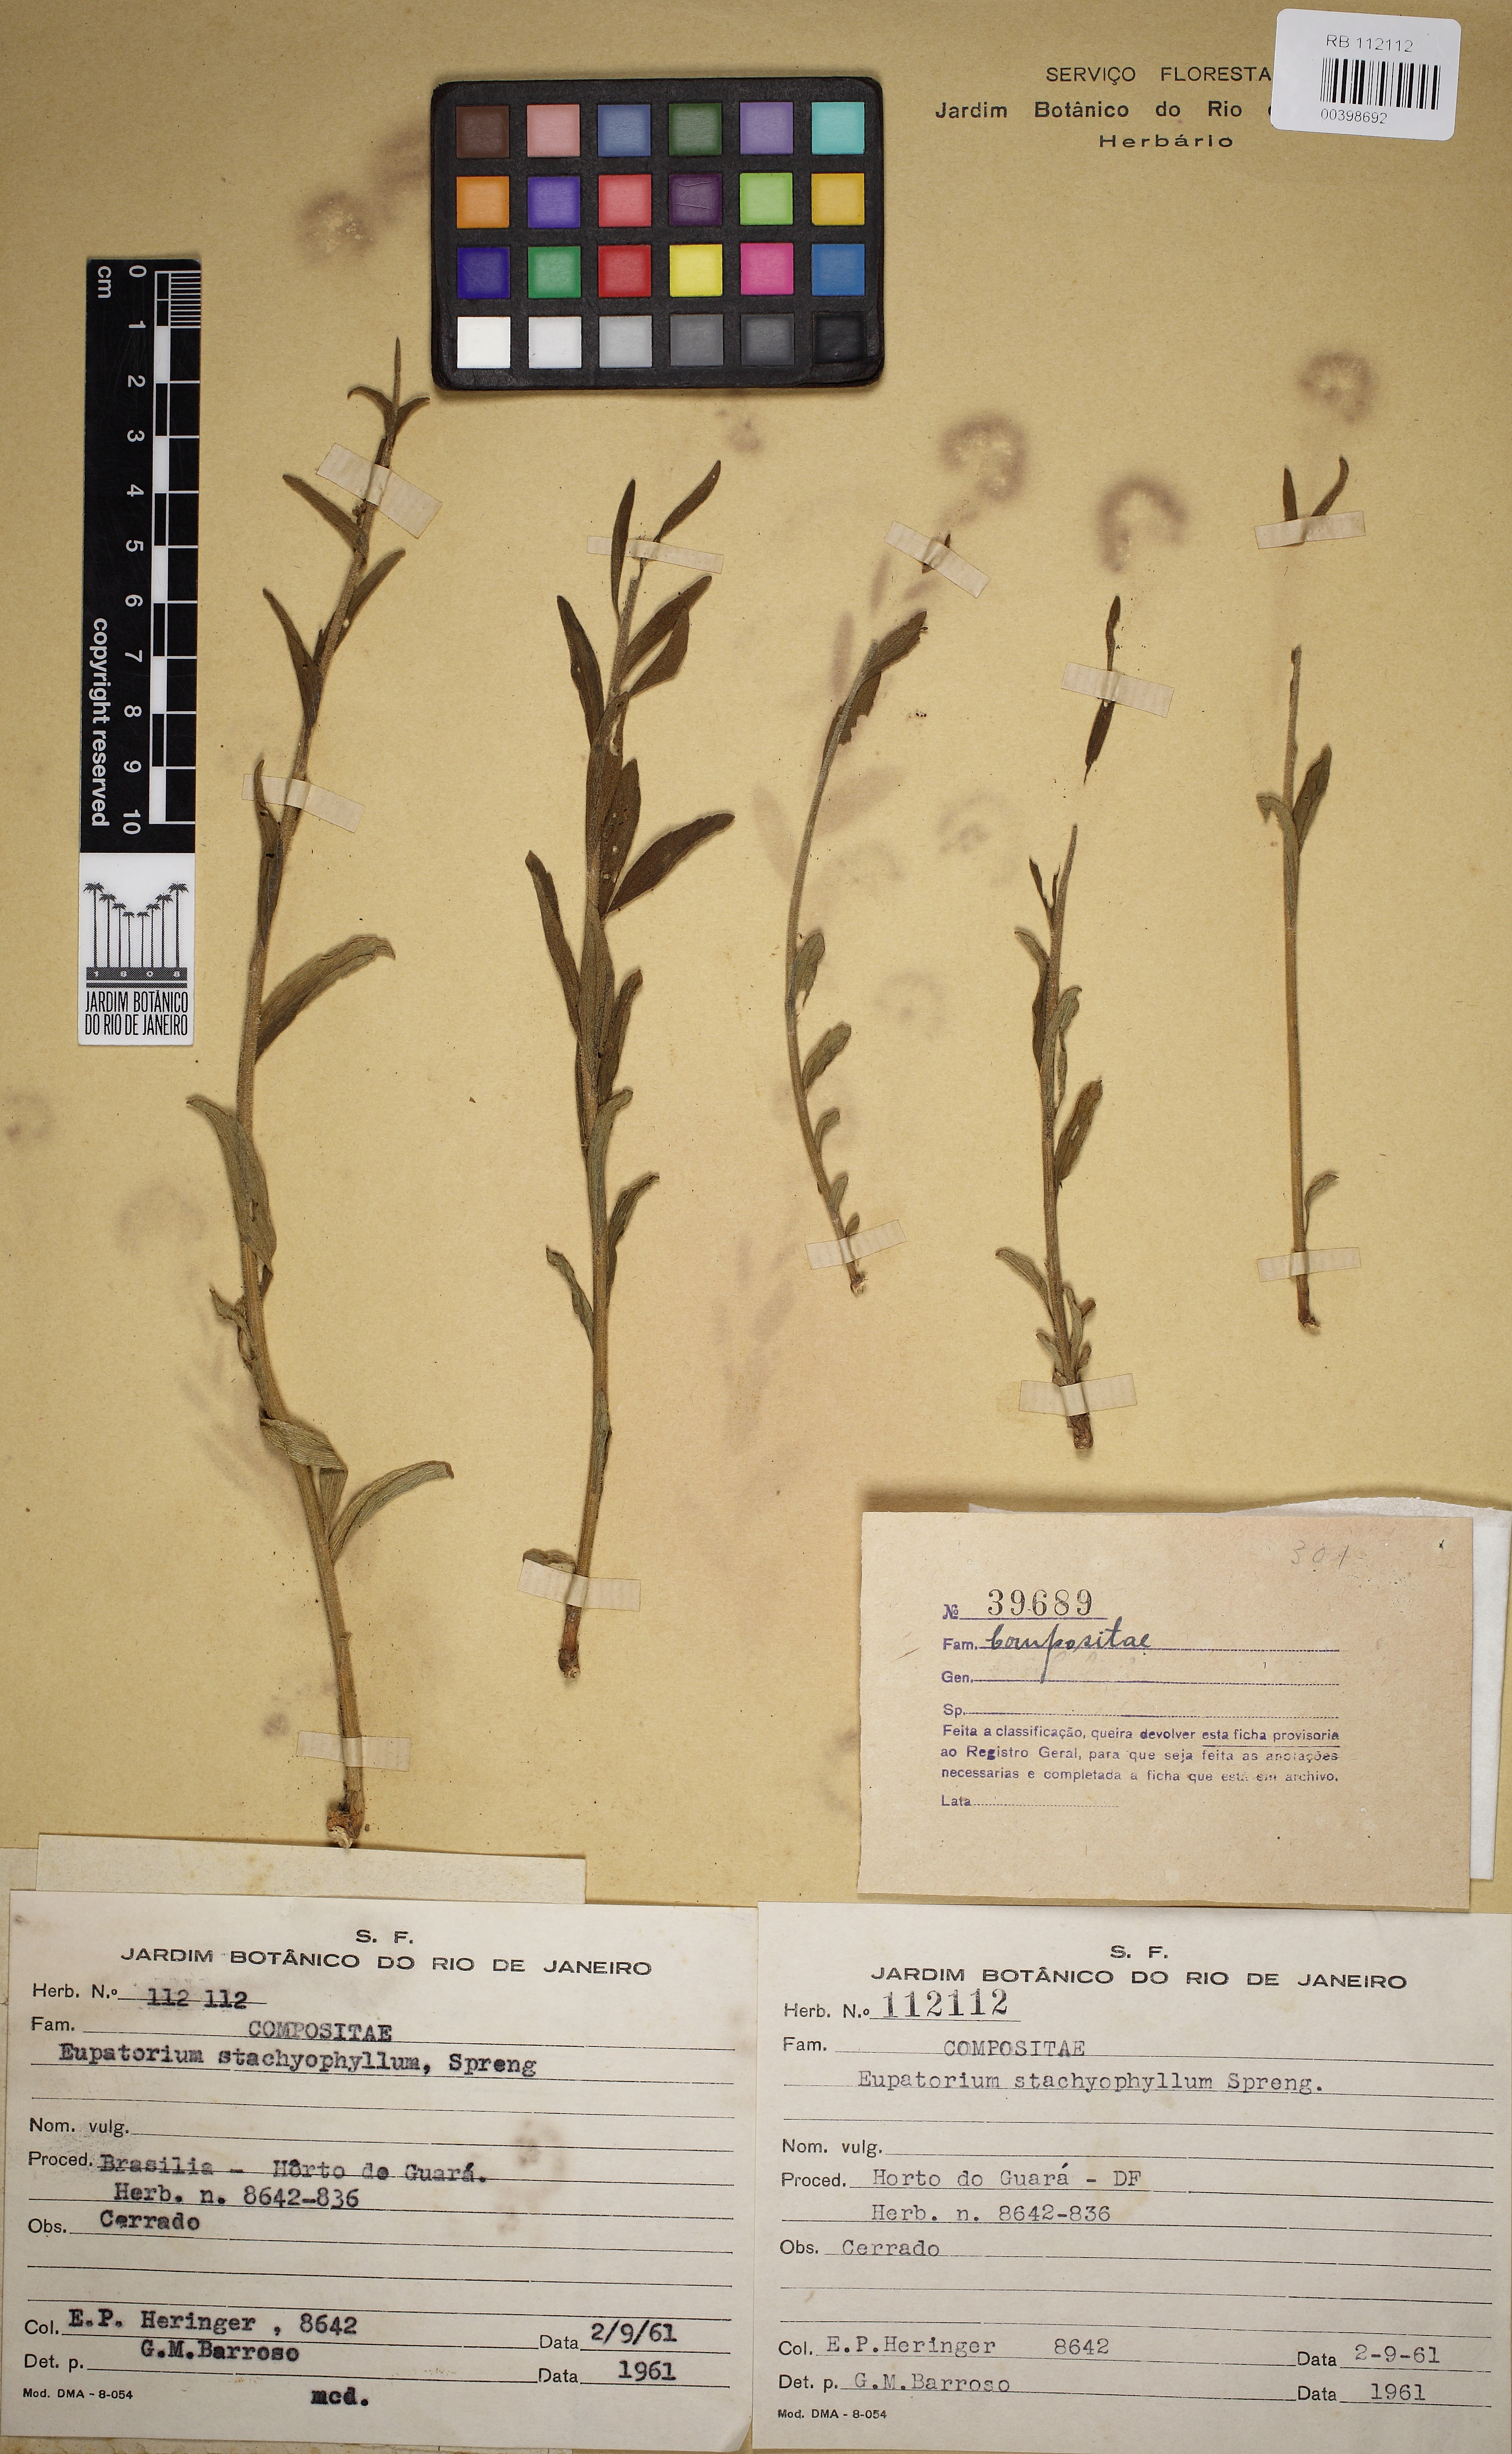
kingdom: Plantae
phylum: Tracheophyta
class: Magnoliopsida
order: Asterales
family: Asteraceae
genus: Chromolaena
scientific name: Chromolaena stachyophylla
